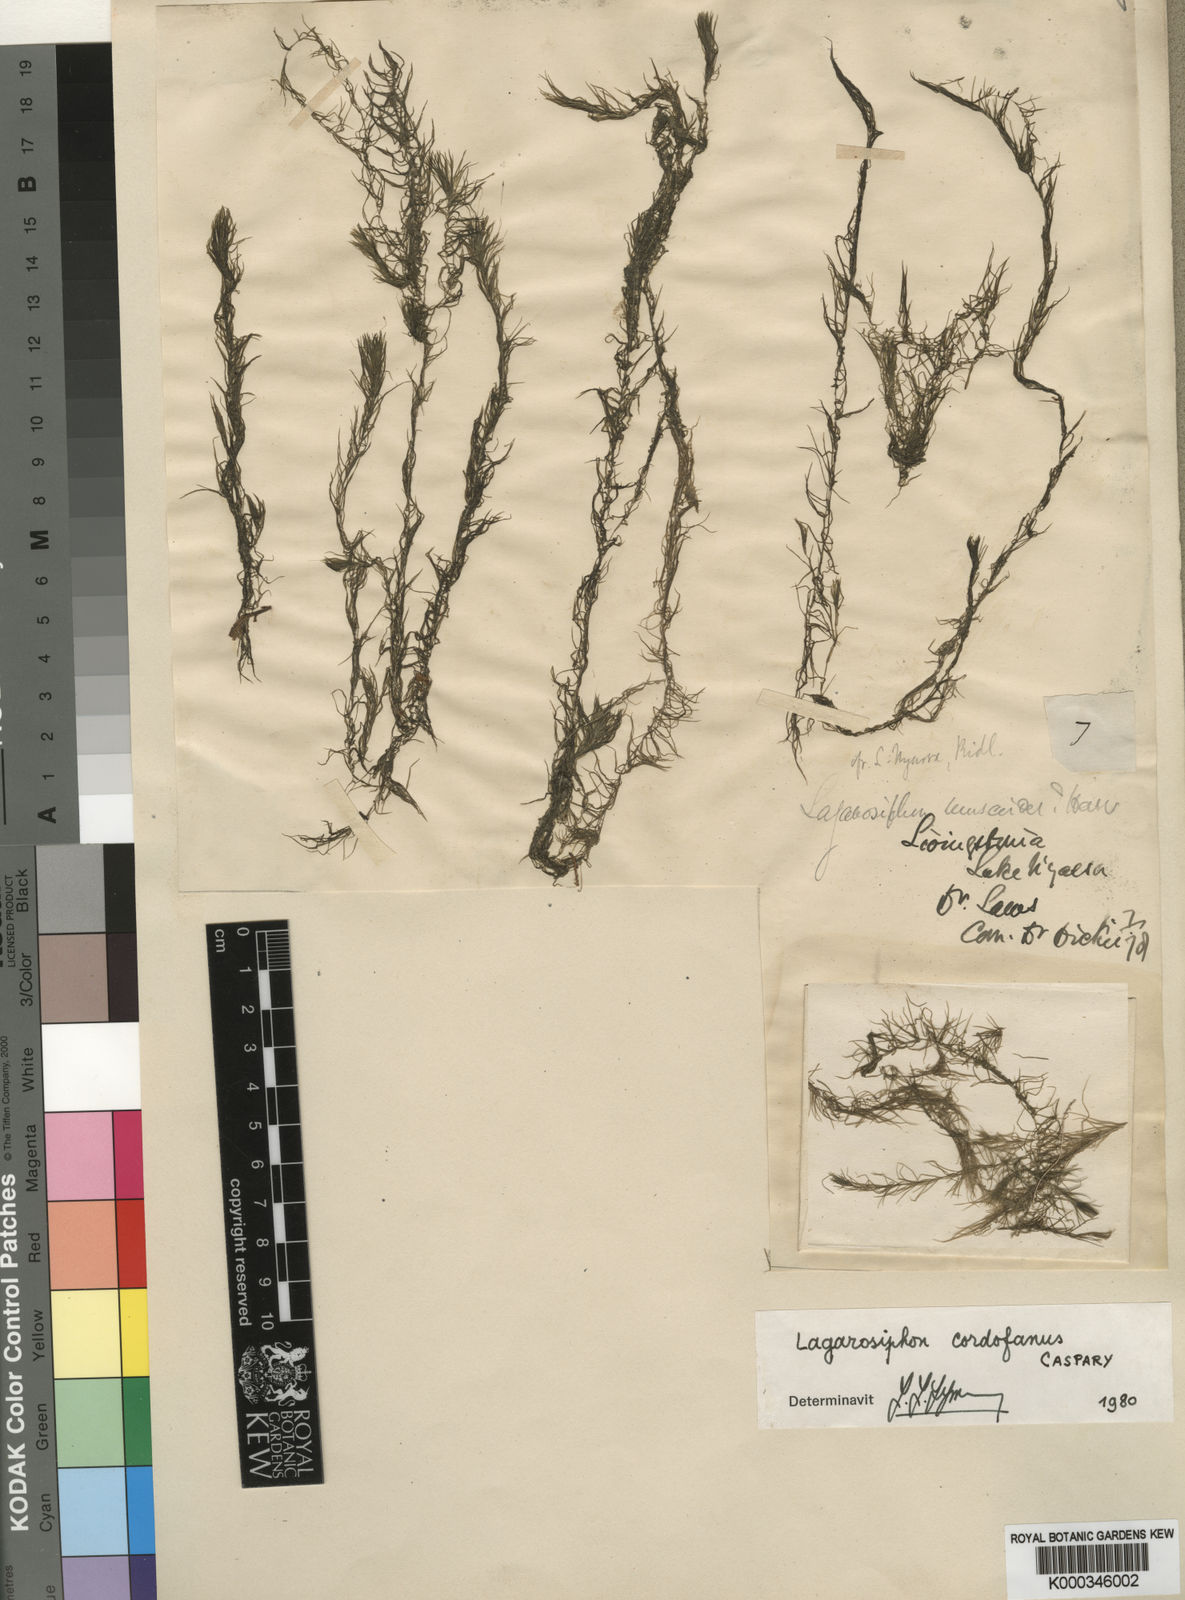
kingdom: Plantae
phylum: Tracheophyta
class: Liliopsida
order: Alismatales
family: Hydrocharitaceae
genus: Lagarosiphon
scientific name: Lagarosiphon cordofanus
